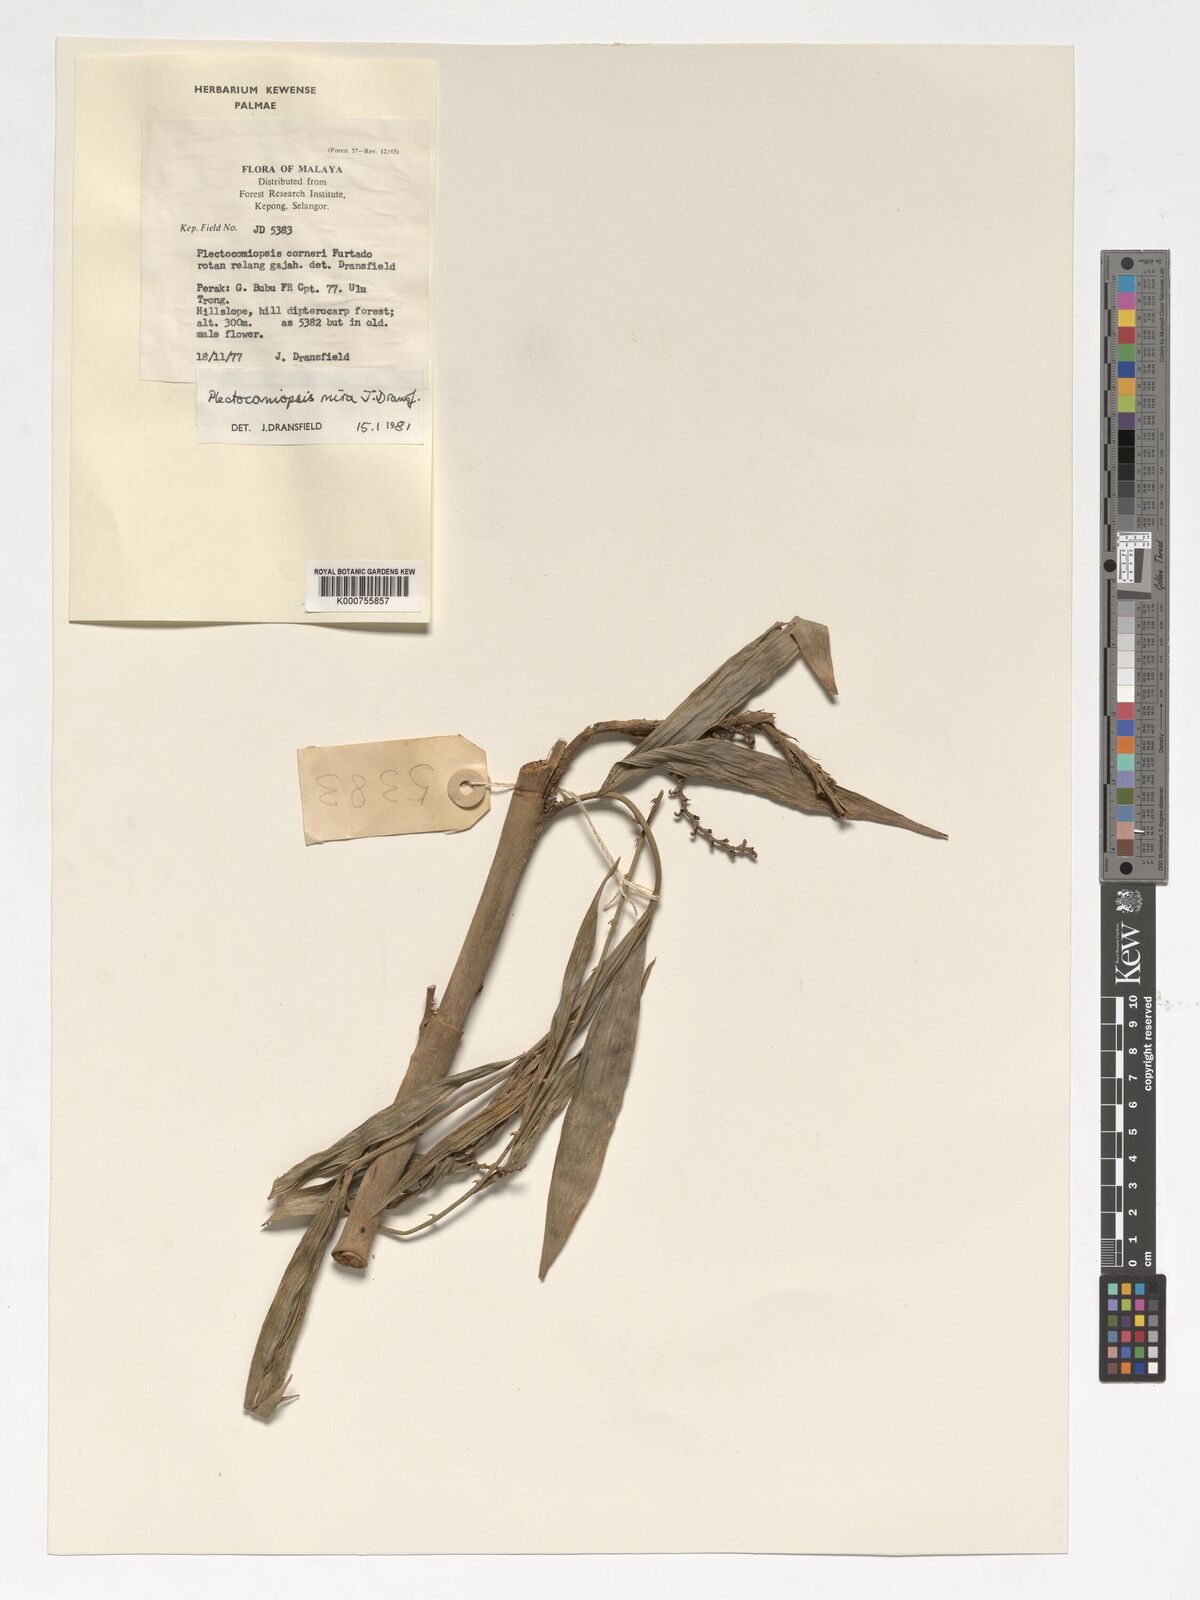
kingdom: Plantae
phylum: Tracheophyta
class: Liliopsida
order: Arecales
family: Arecaceae
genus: Plectocomiopsis
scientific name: Plectocomiopsis corneri
